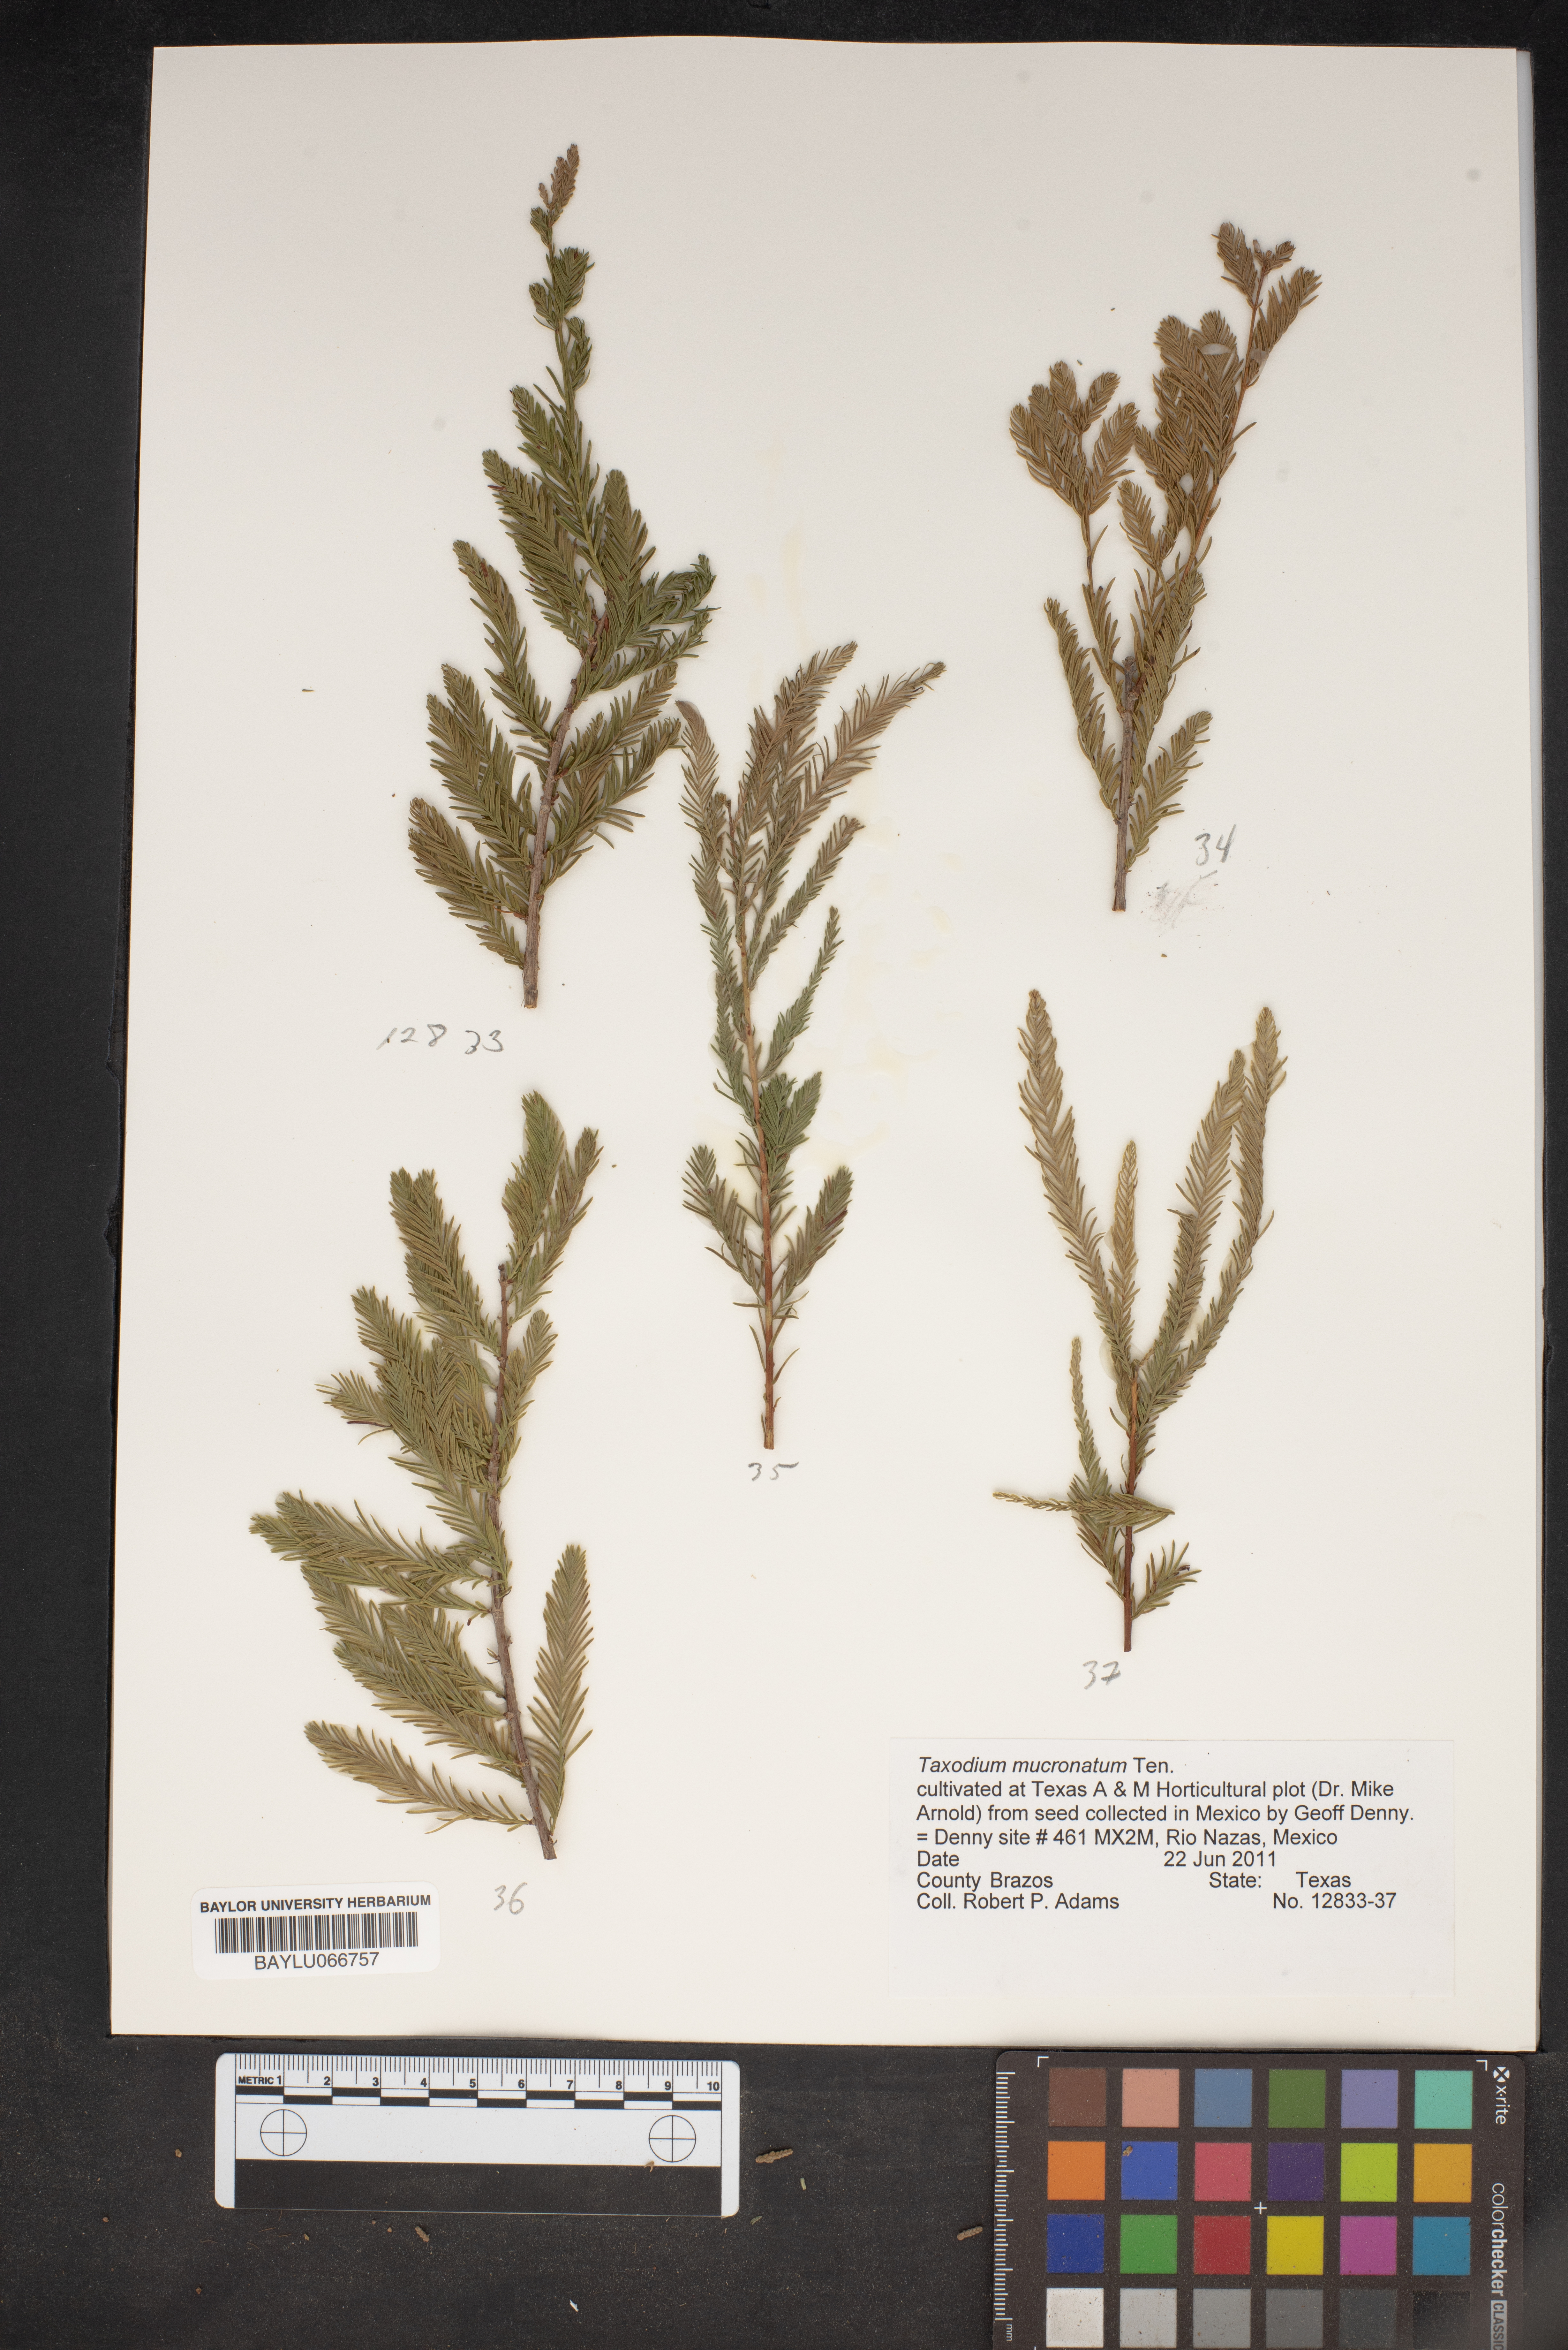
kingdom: Plantae
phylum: Tracheophyta
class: Pinopsida
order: Pinales
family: Cupressaceae
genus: Taxodium
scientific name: Taxodium mucronatum
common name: Montezume bald cypress
